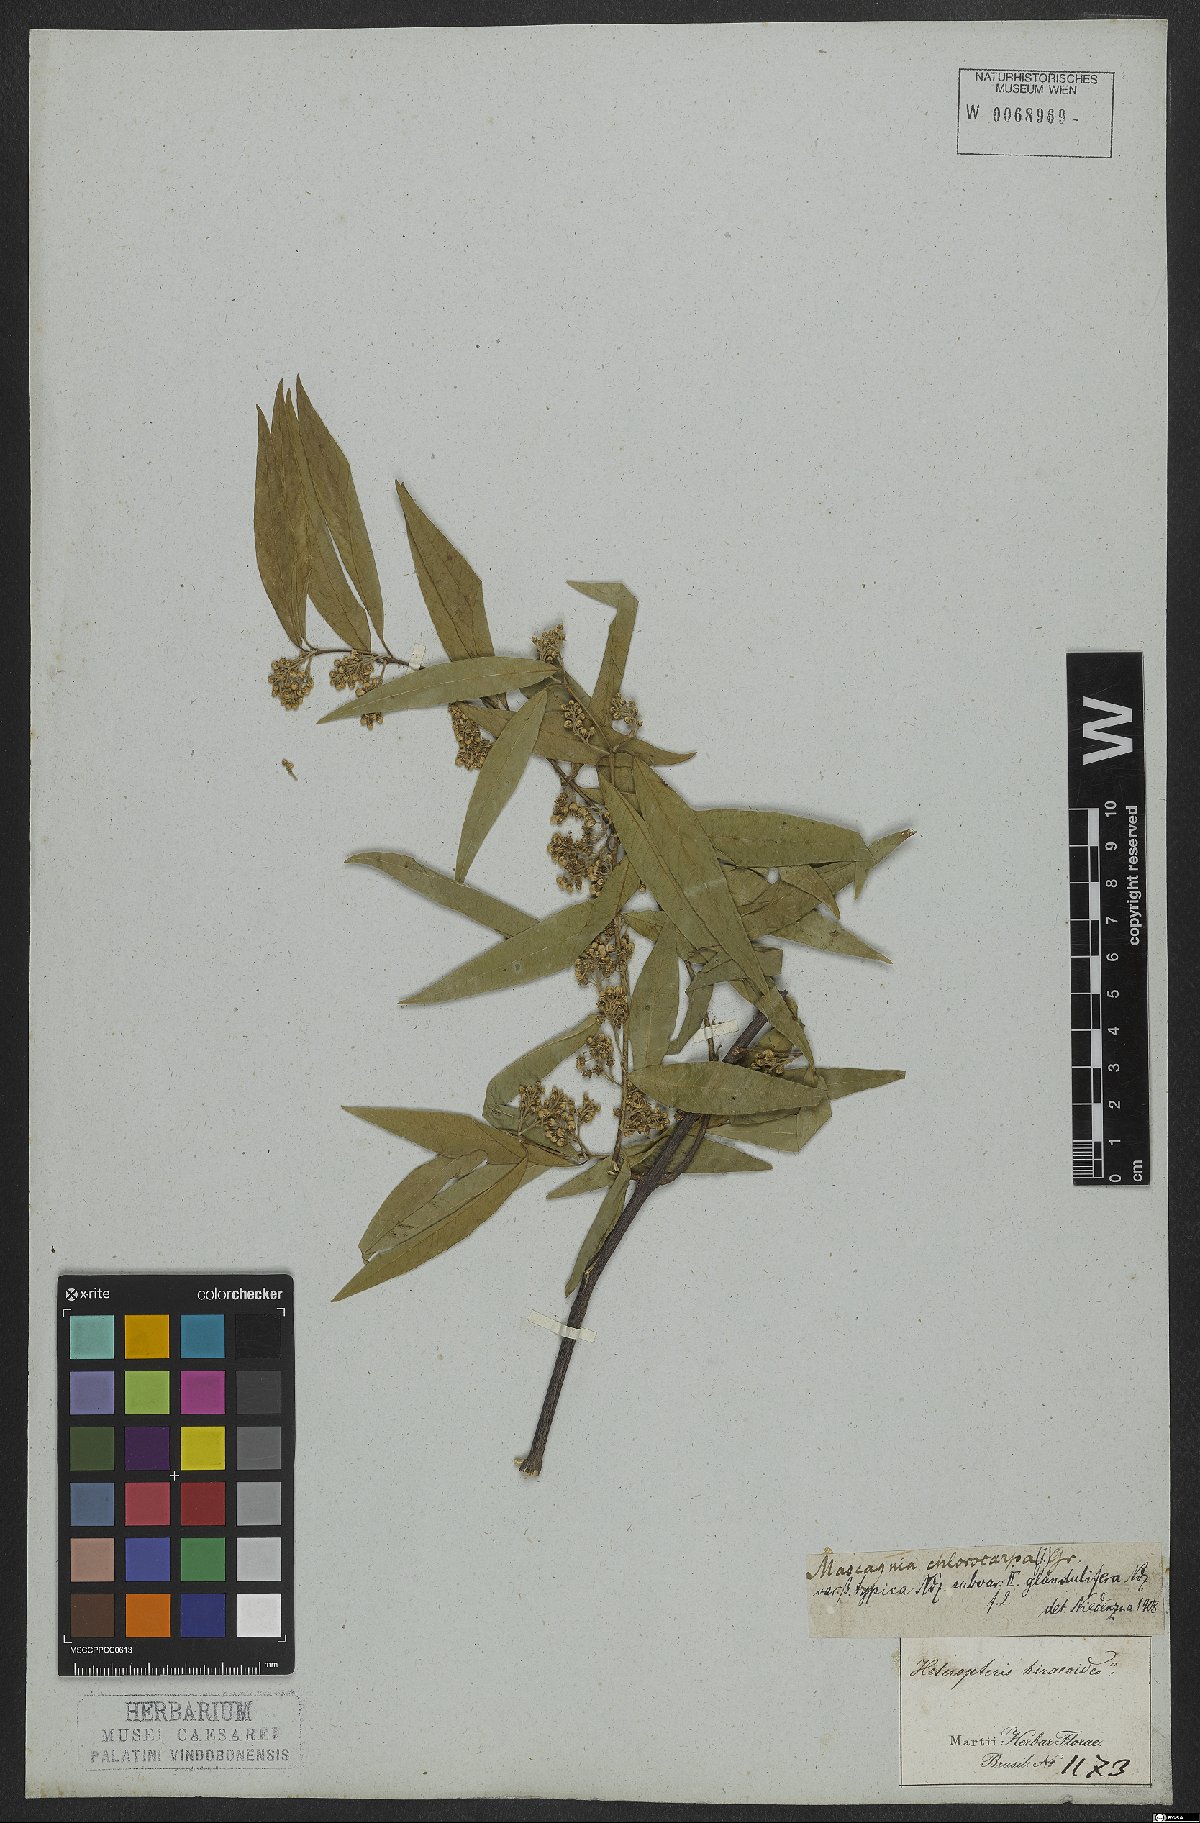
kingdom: Plantae
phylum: Tracheophyta
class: Magnoliopsida
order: Malpighiales
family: Malpighiaceae
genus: Carolus
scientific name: Carolus chlorocarpus
